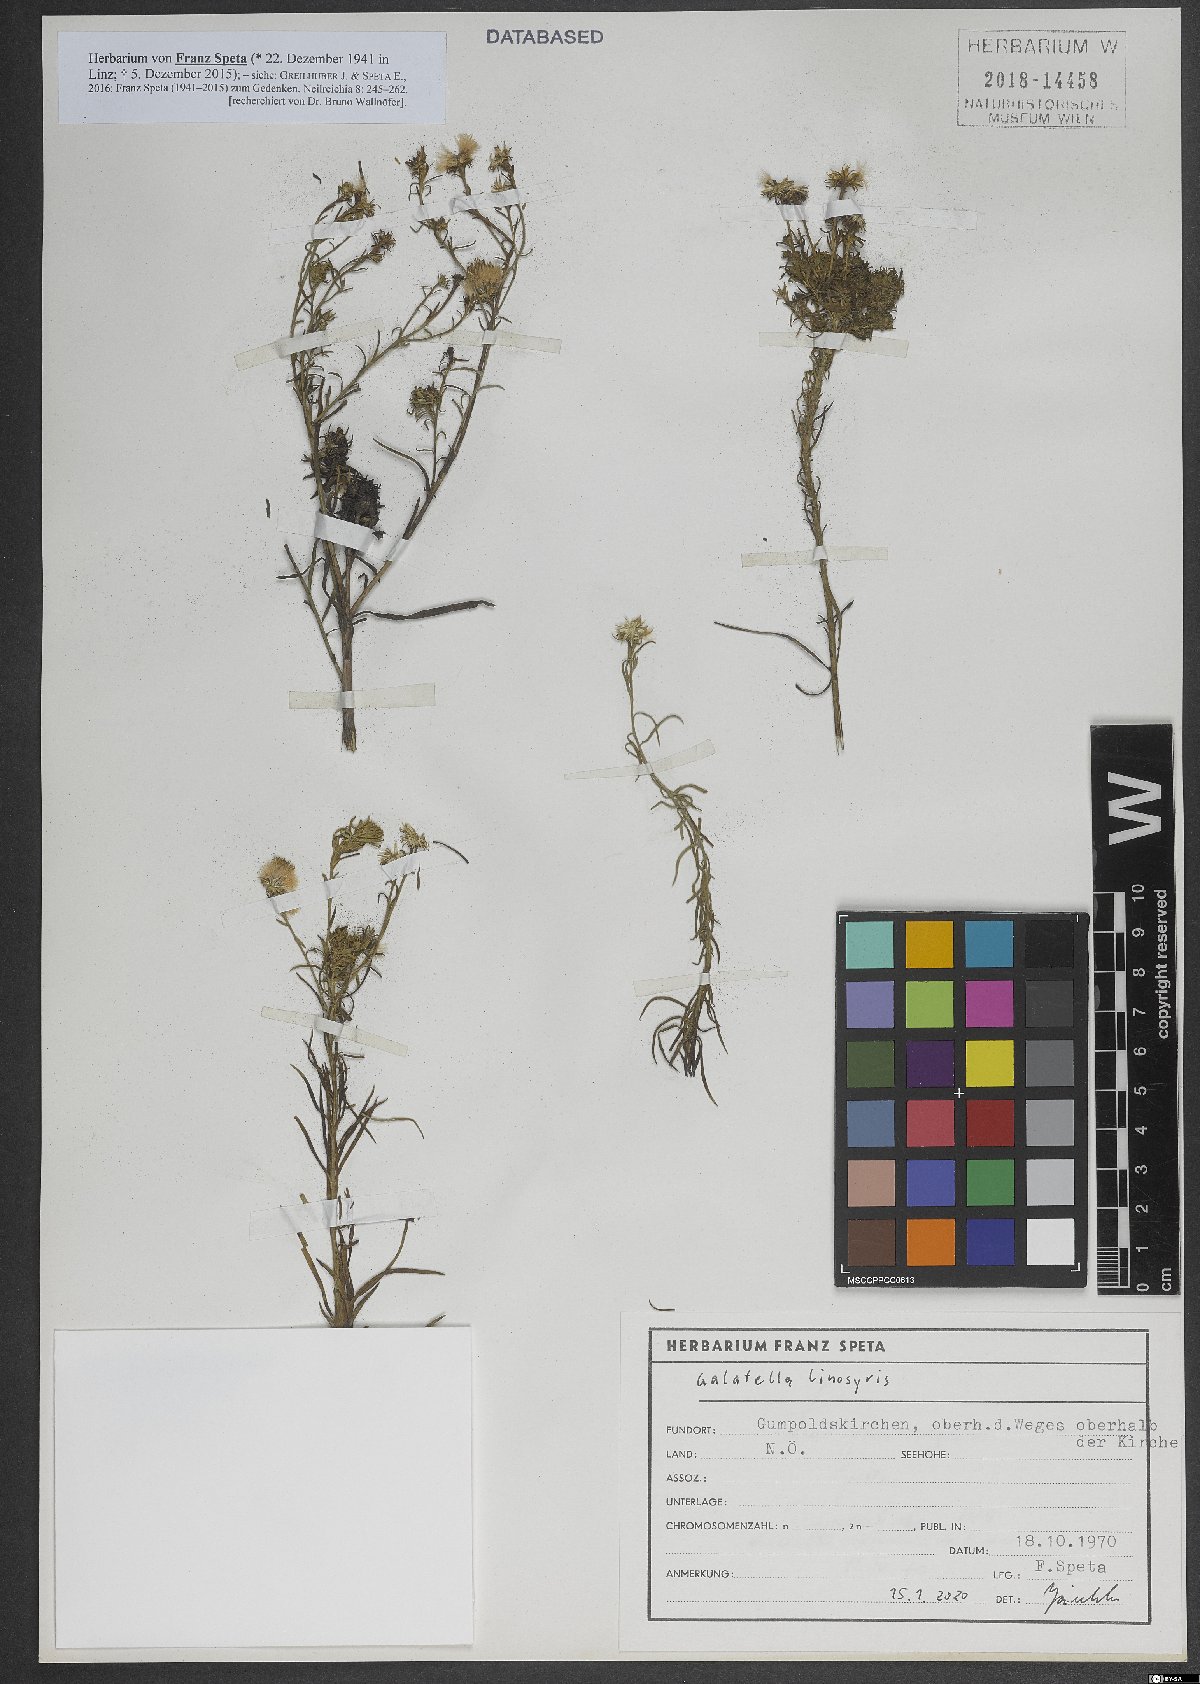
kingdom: Plantae
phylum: Tracheophyta
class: Magnoliopsida
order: Asterales
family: Asteraceae
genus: Galatella
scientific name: Galatella linosyris
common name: Goldilocks aster
